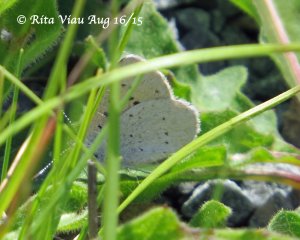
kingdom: Animalia
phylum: Arthropoda
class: Insecta
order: Lepidoptera
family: Sesiidae
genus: Sesia
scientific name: Sesia Lycaena epixanthe
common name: Bog Copper
